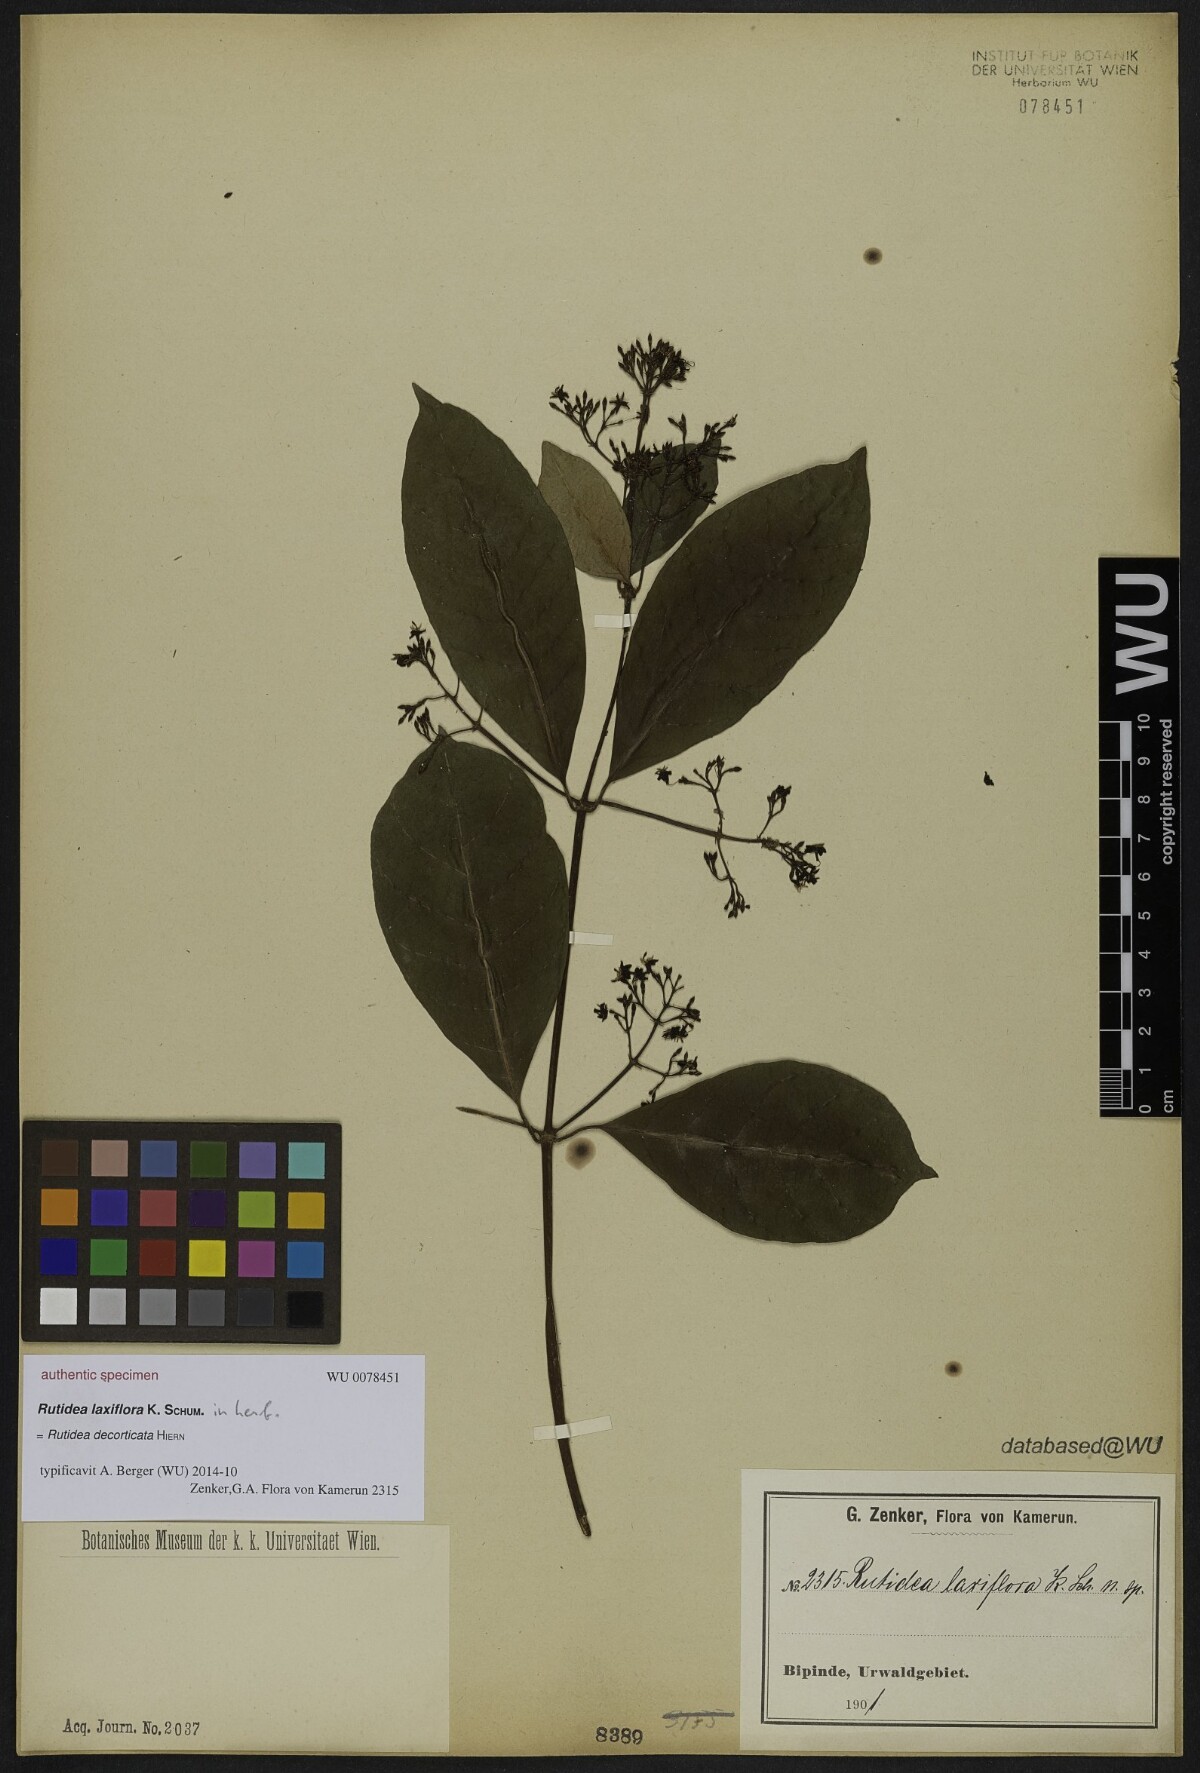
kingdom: Plantae
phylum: Tracheophyta
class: Magnoliopsida
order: Gentianales
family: Rubiaceae
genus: Rutidea
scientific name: Rutidea
